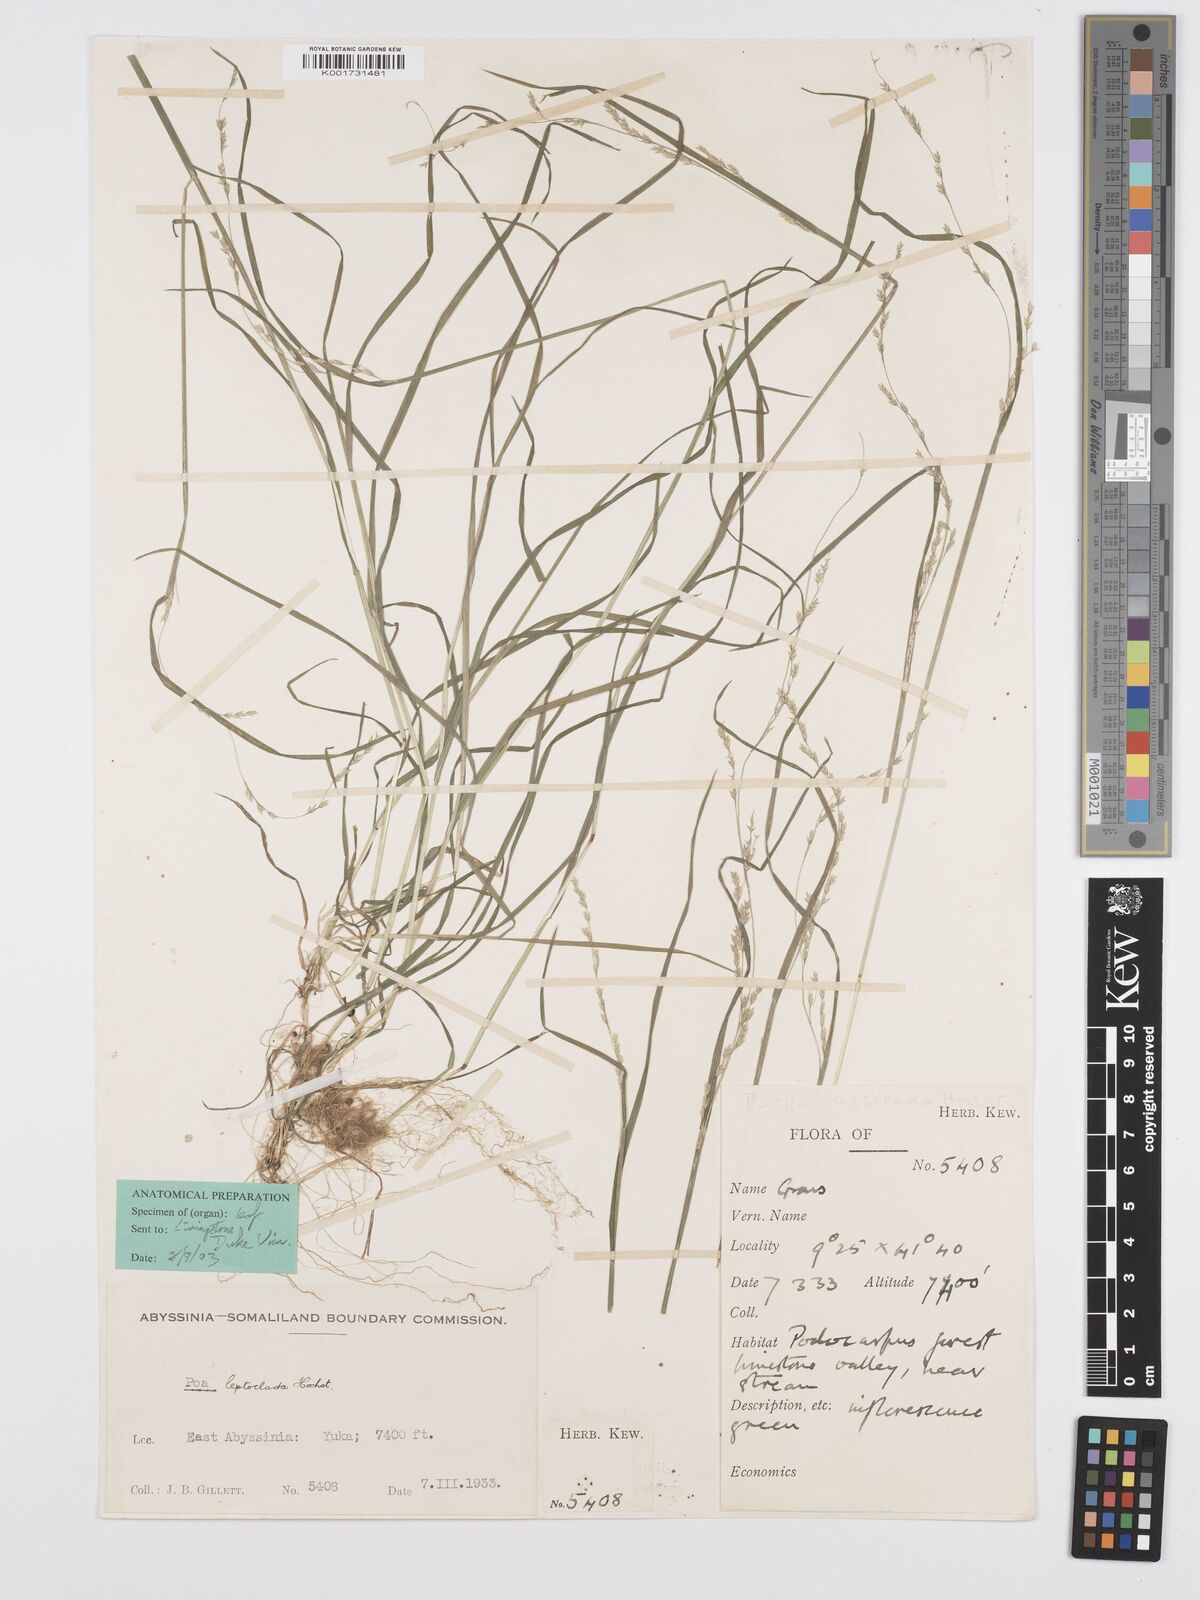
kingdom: Plantae
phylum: Tracheophyta
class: Liliopsida
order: Poales
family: Poaceae
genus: Poa
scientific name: Poa leptoclada
